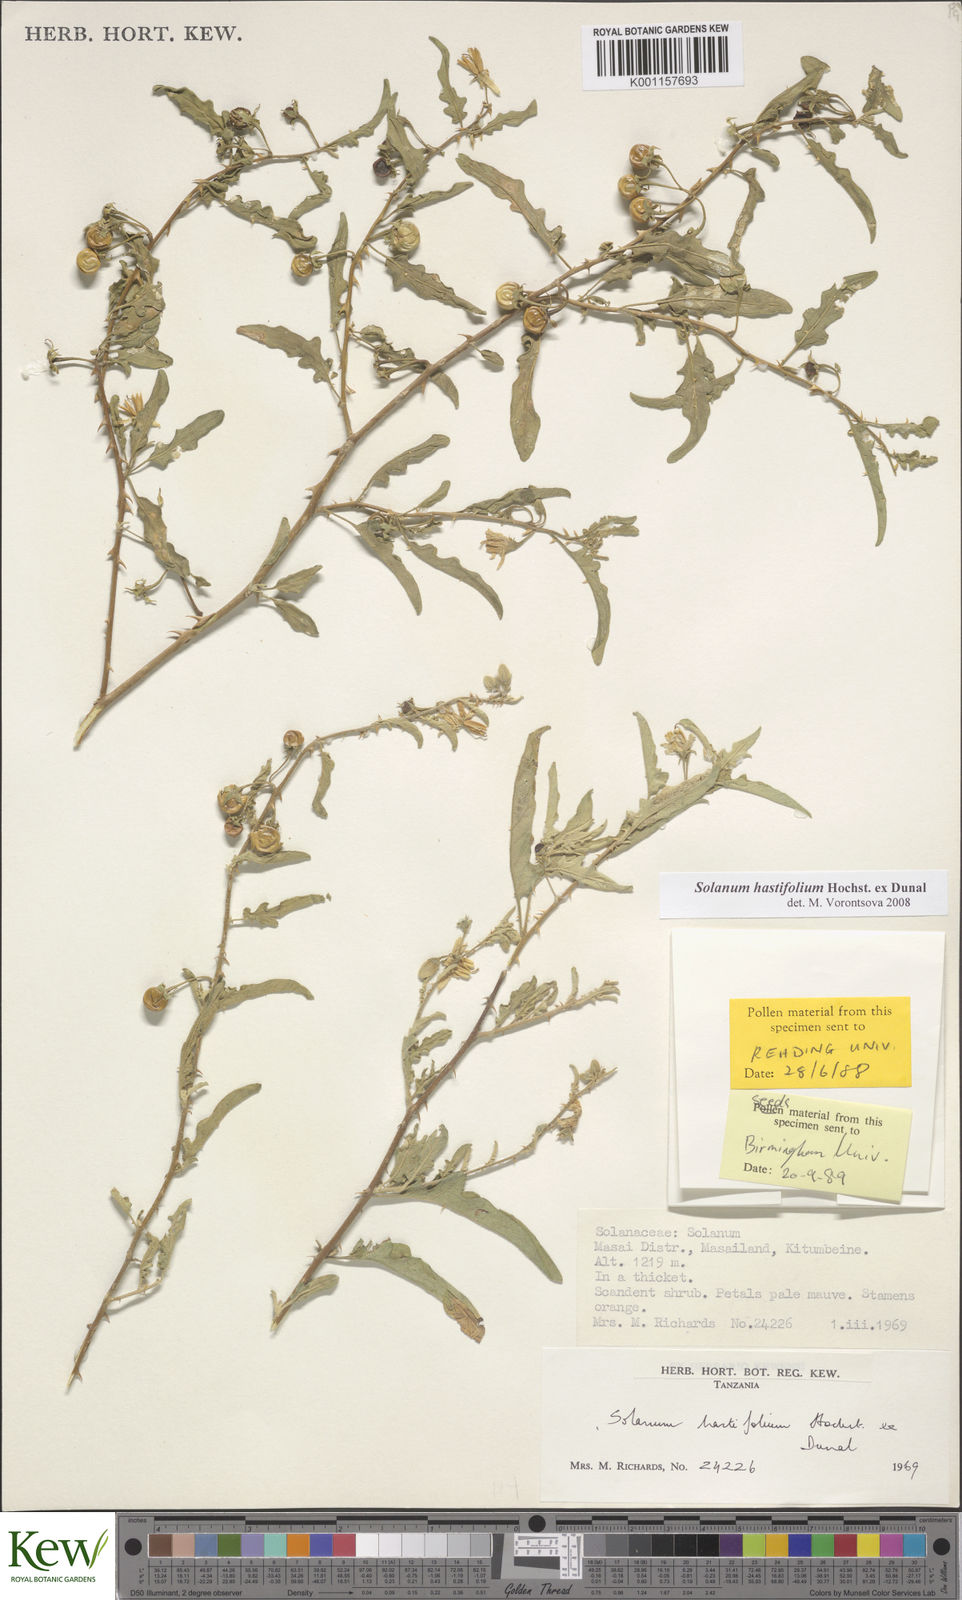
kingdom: Plantae
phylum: Tracheophyta
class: Magnoliopsida
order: Solanales
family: Solanaceae
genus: Solanum
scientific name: Solanum hastifolium
